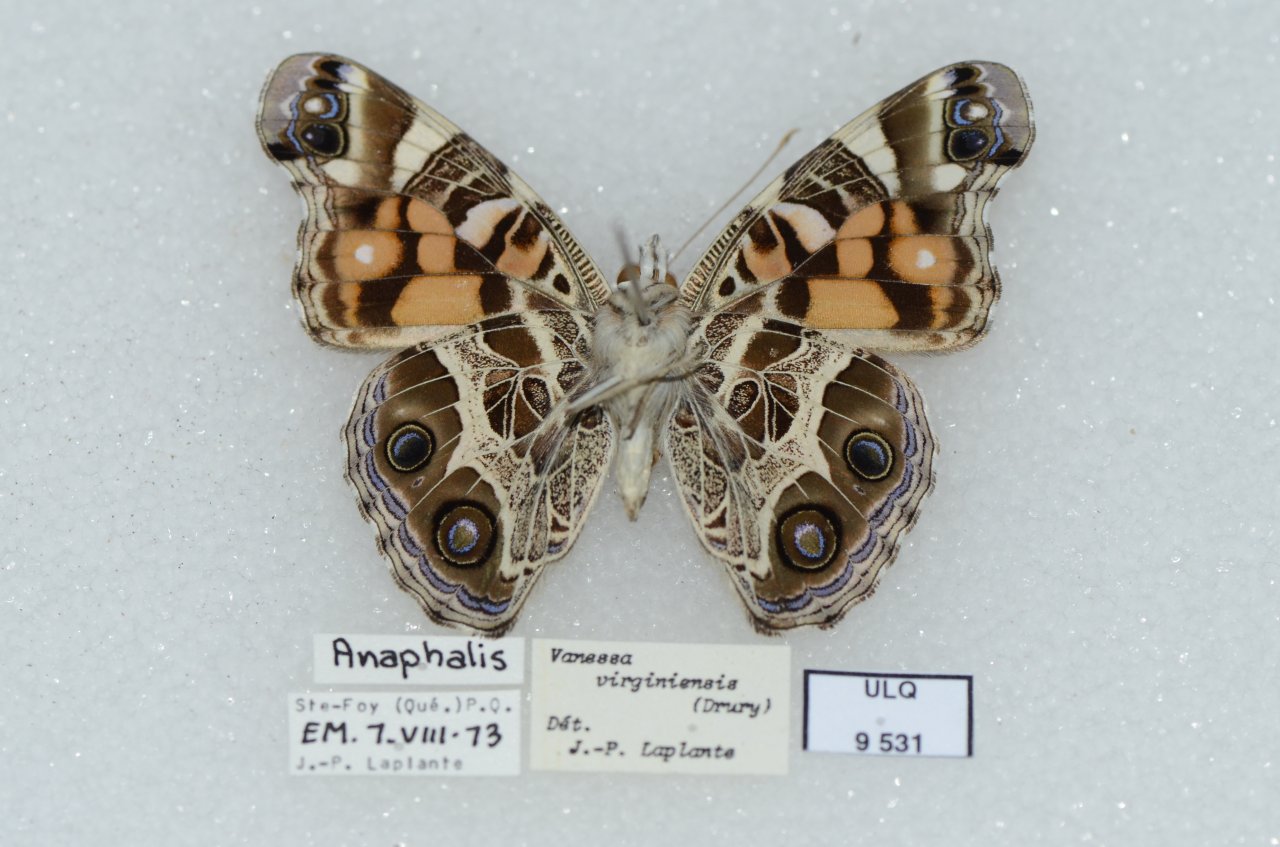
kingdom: Animalia
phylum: Arthropoda
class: Insecta
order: Lepidoptera
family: Nymphalidae
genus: Vanessa
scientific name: Vanessa virginiensis
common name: American Lady
